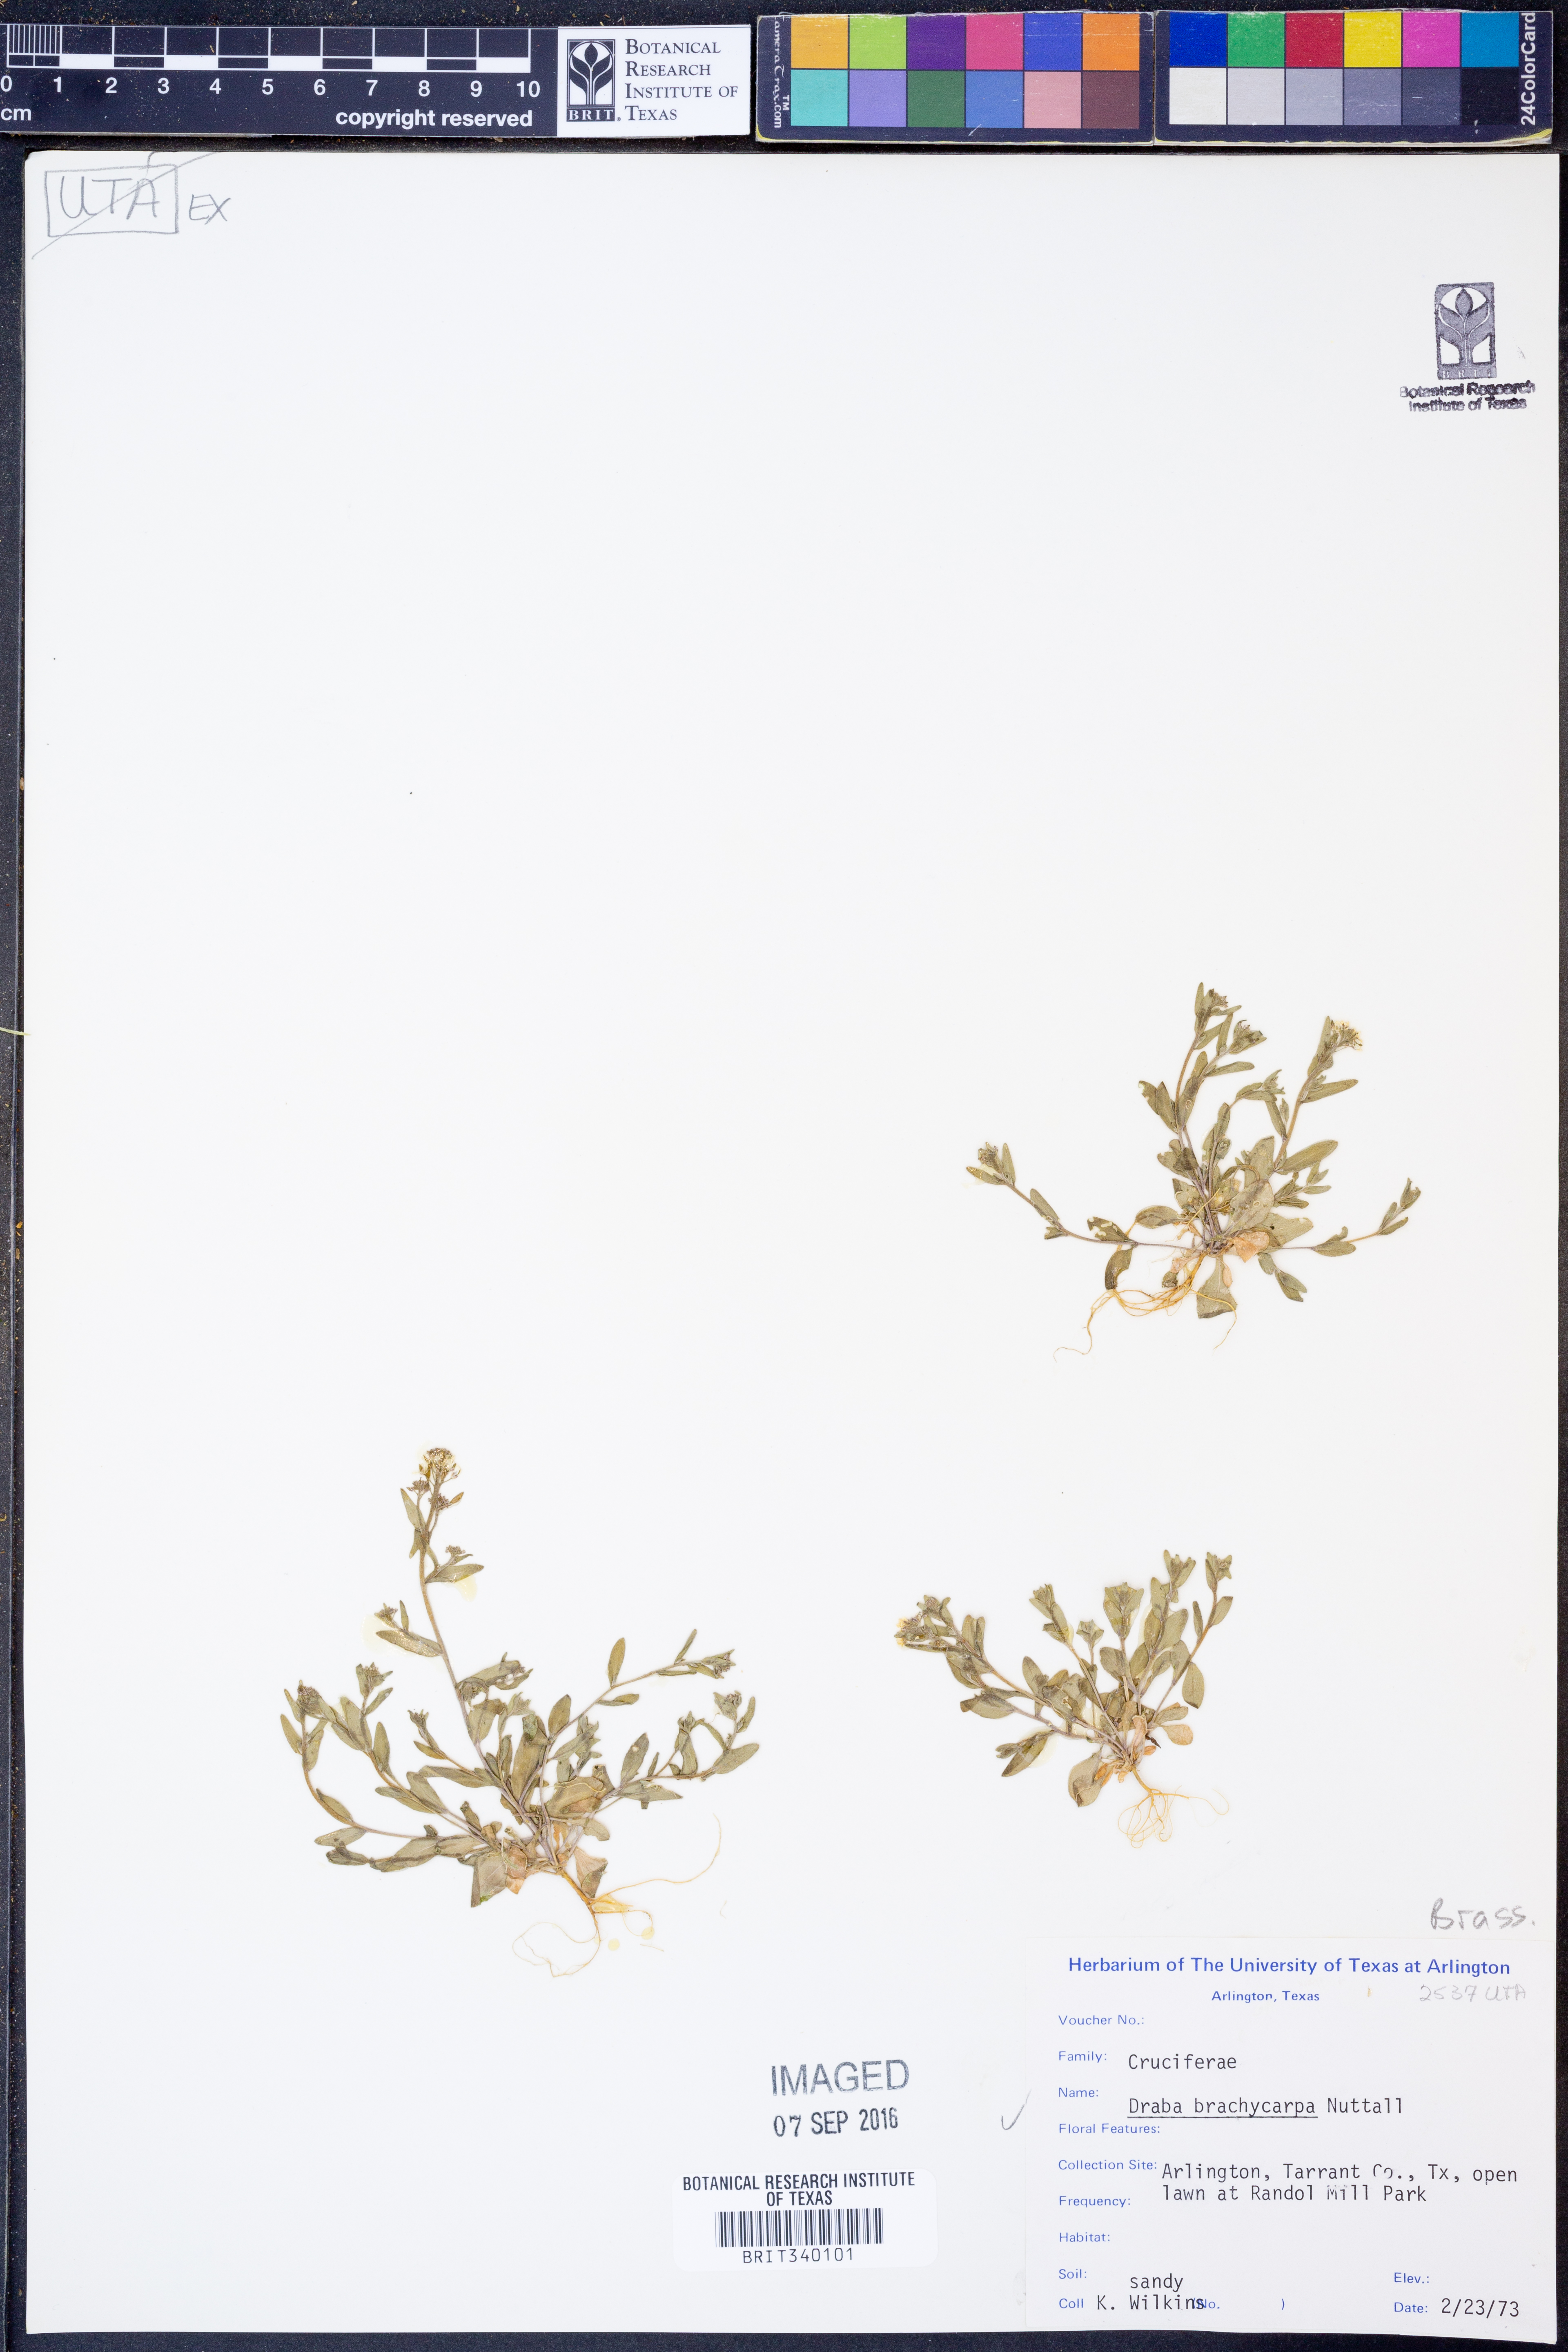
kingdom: Plantae
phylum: Tracheophyta
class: Magnoliopsida
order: Brassicales
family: Brassicaceae
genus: Abdra
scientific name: Abdra brachycarpa
